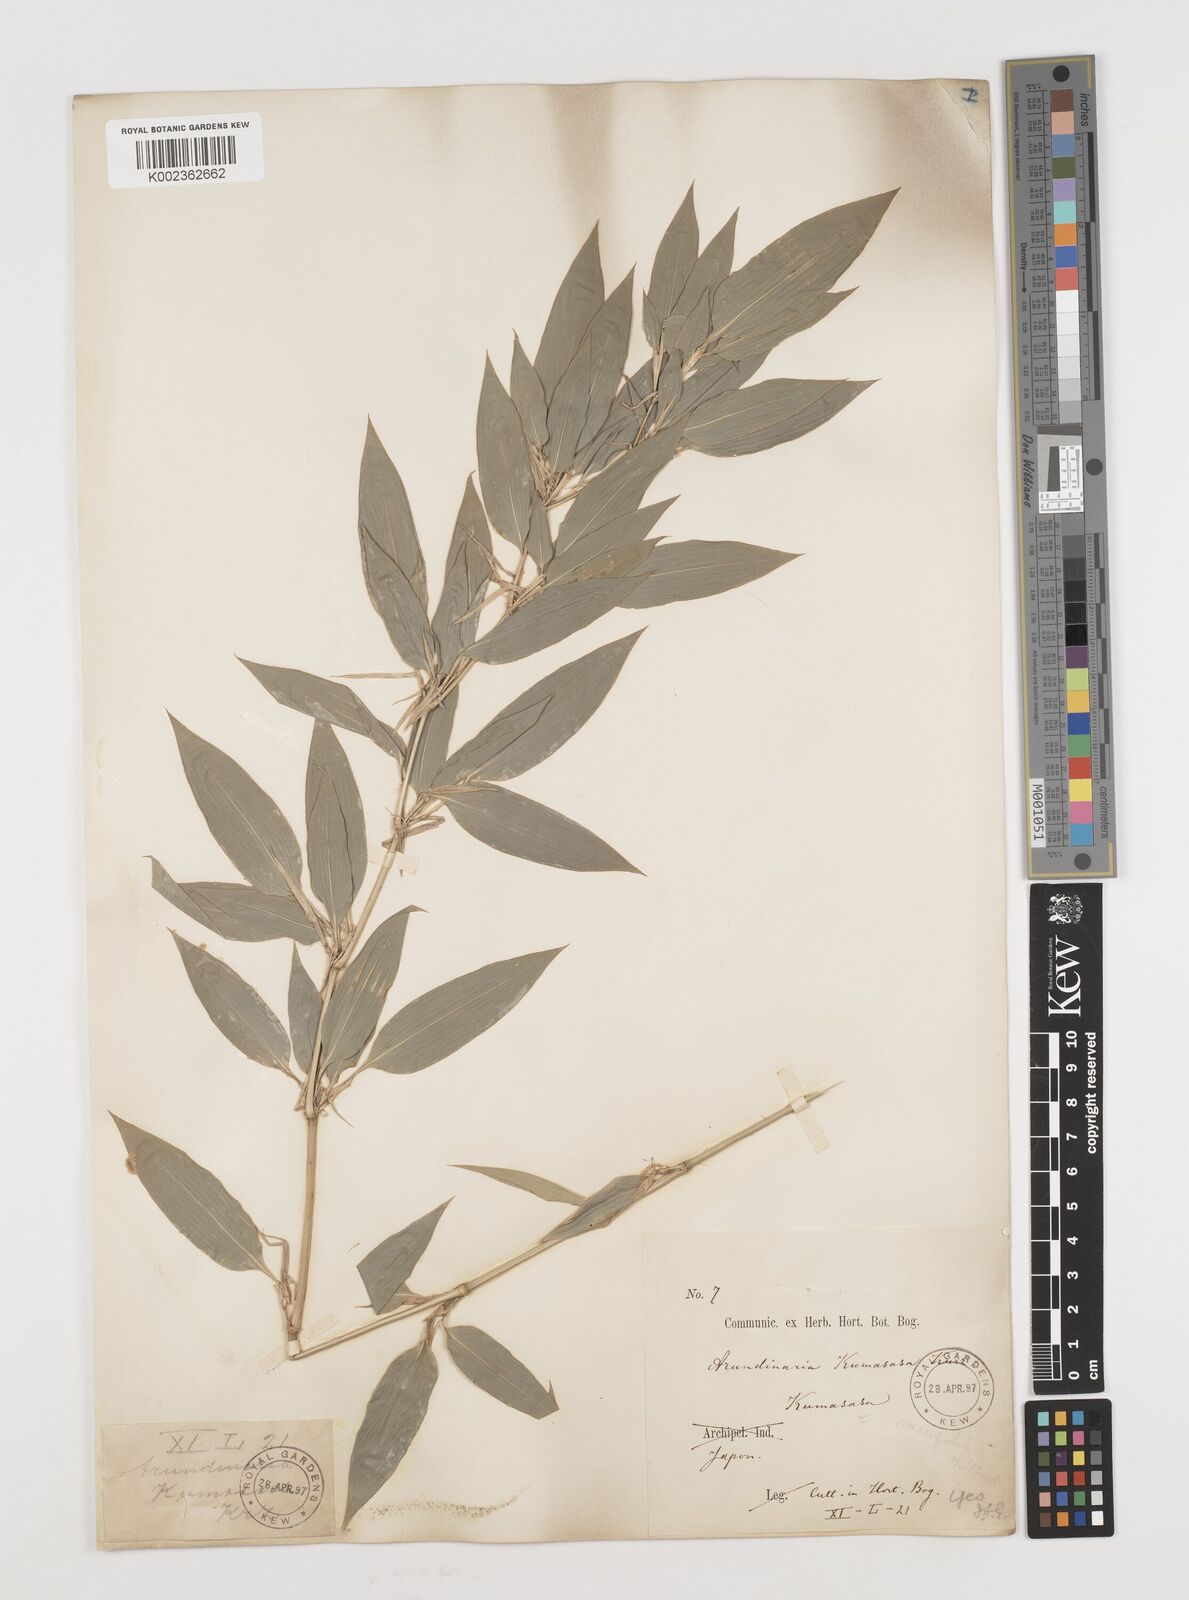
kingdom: Plantae
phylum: Tracheophyta
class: Liliopsida
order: Poales
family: Poaceae
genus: Shibataea
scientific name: Shibataea kumasasa
